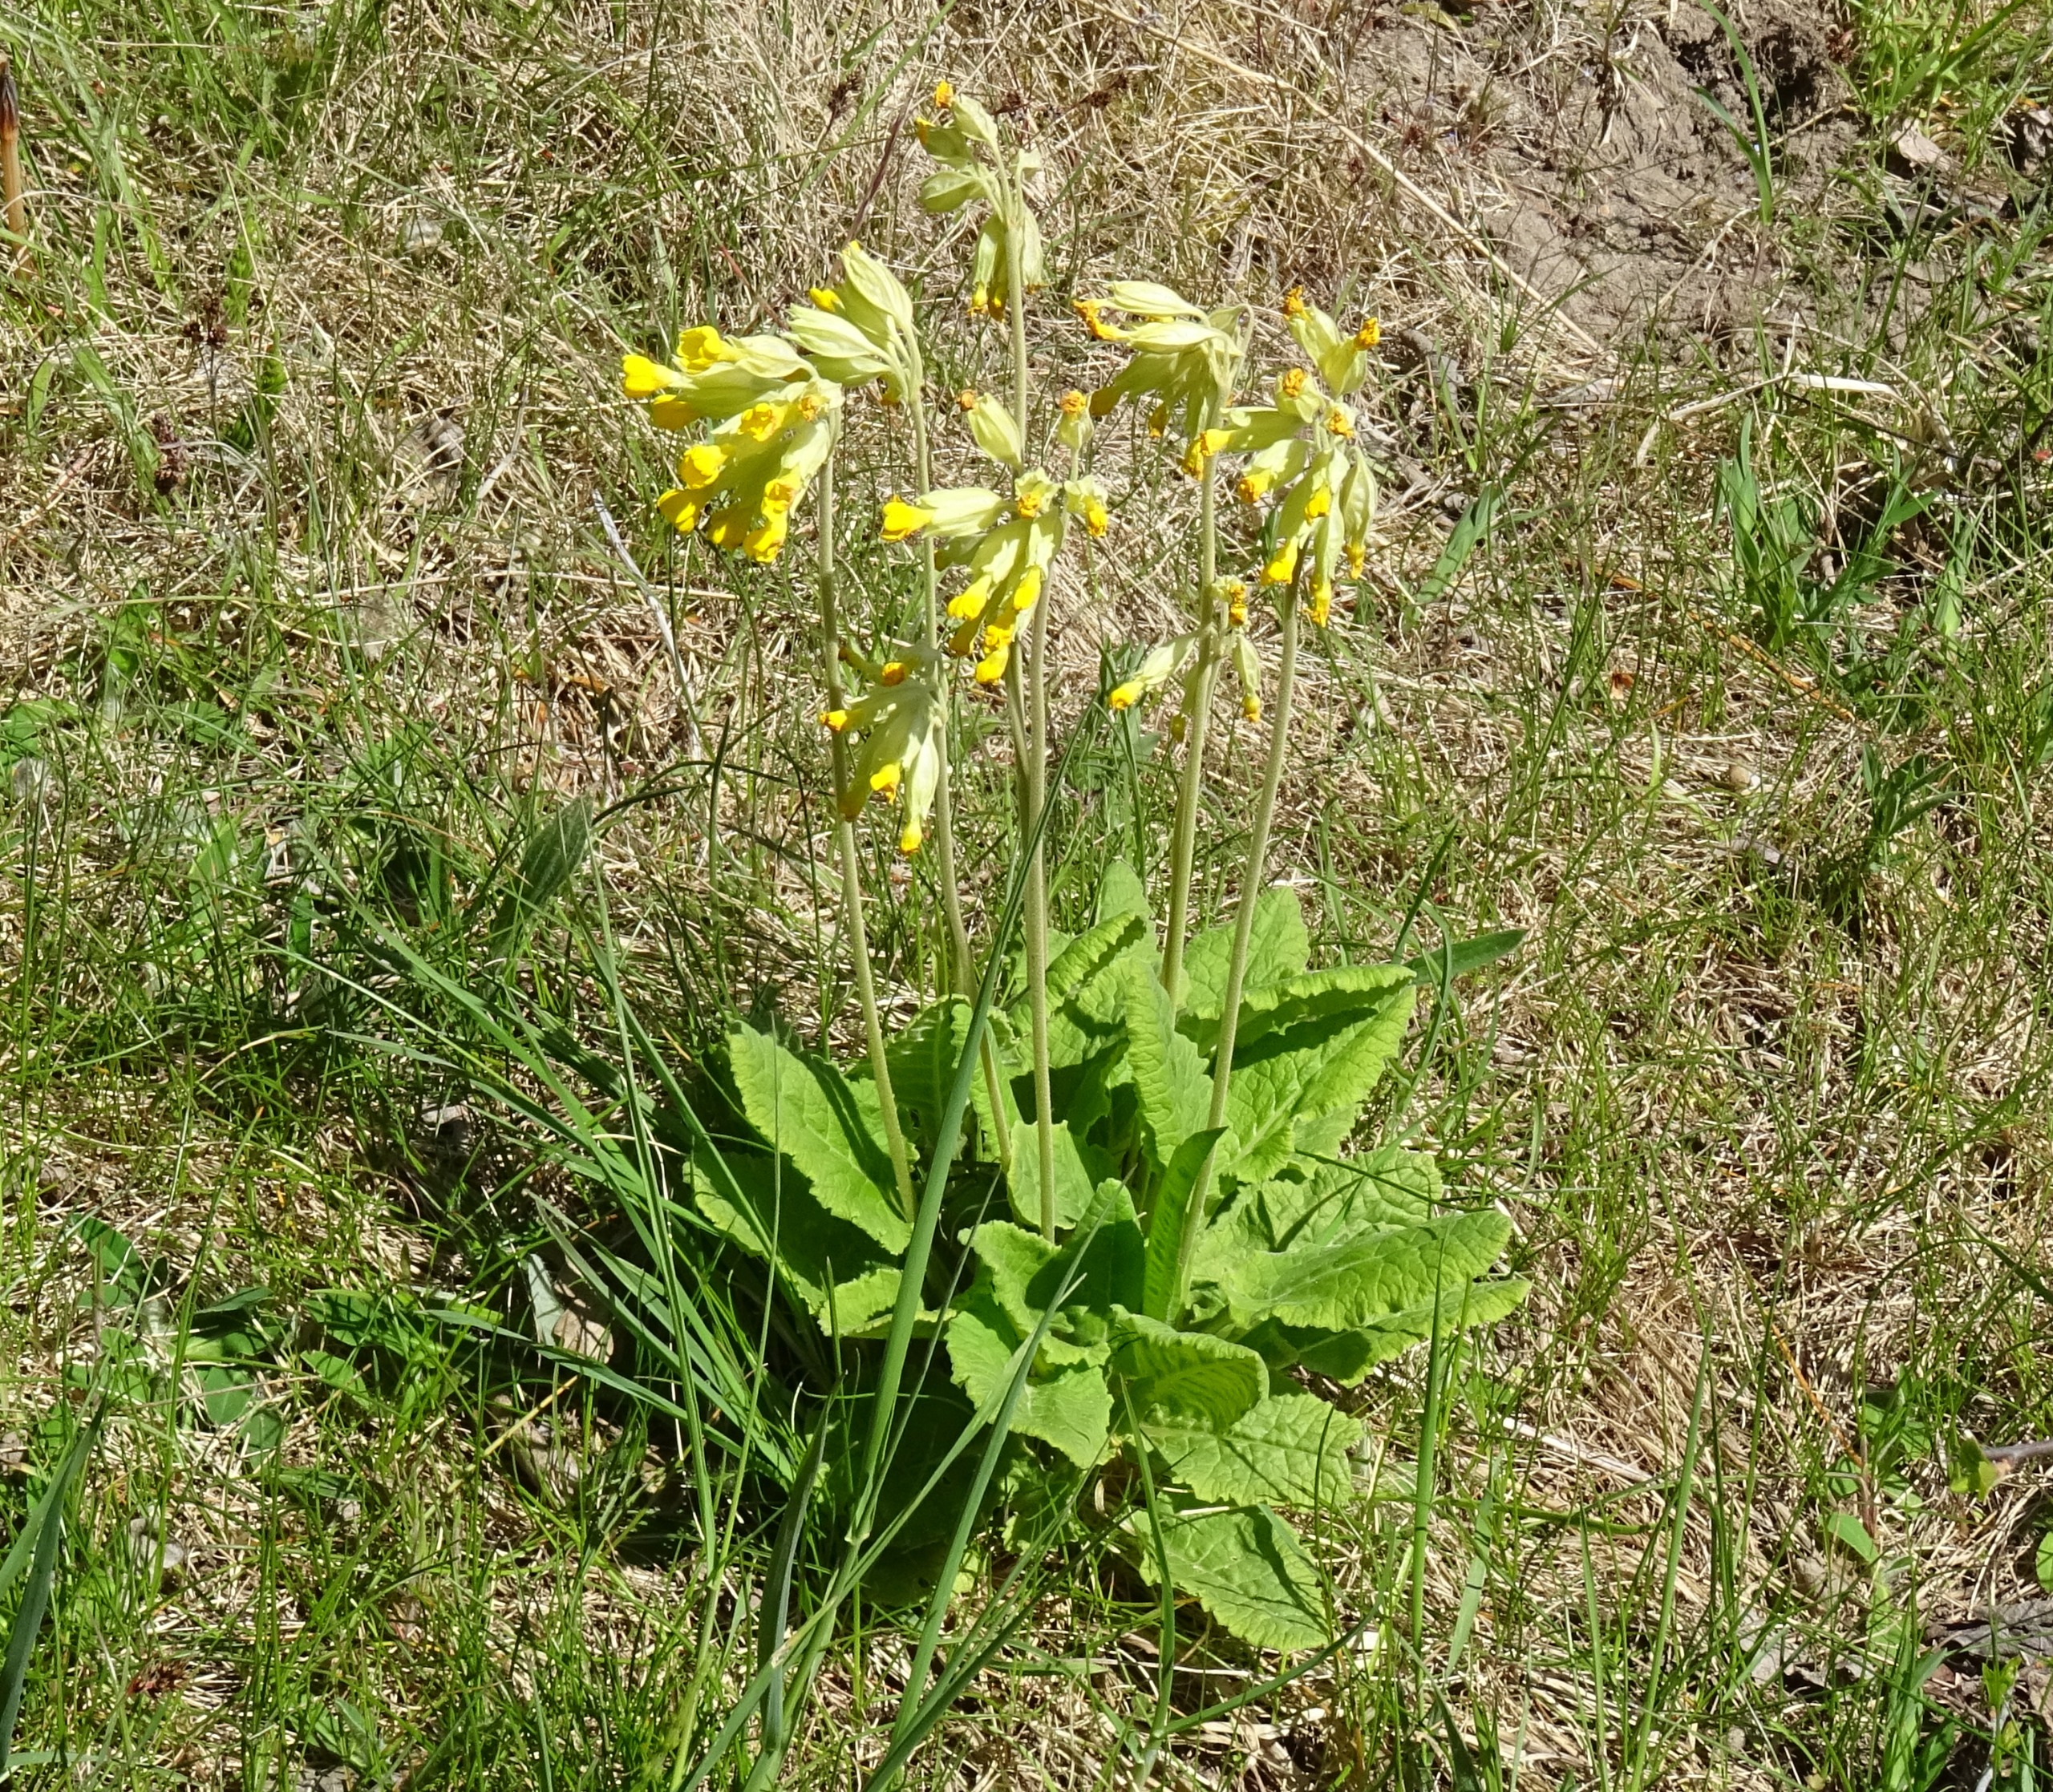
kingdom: Plantae
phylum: Tracheophyta
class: Magnoliopsida
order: Ericales
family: Primulaceae
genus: Primula
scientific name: Primula veris
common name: Hulkravet kodriver
